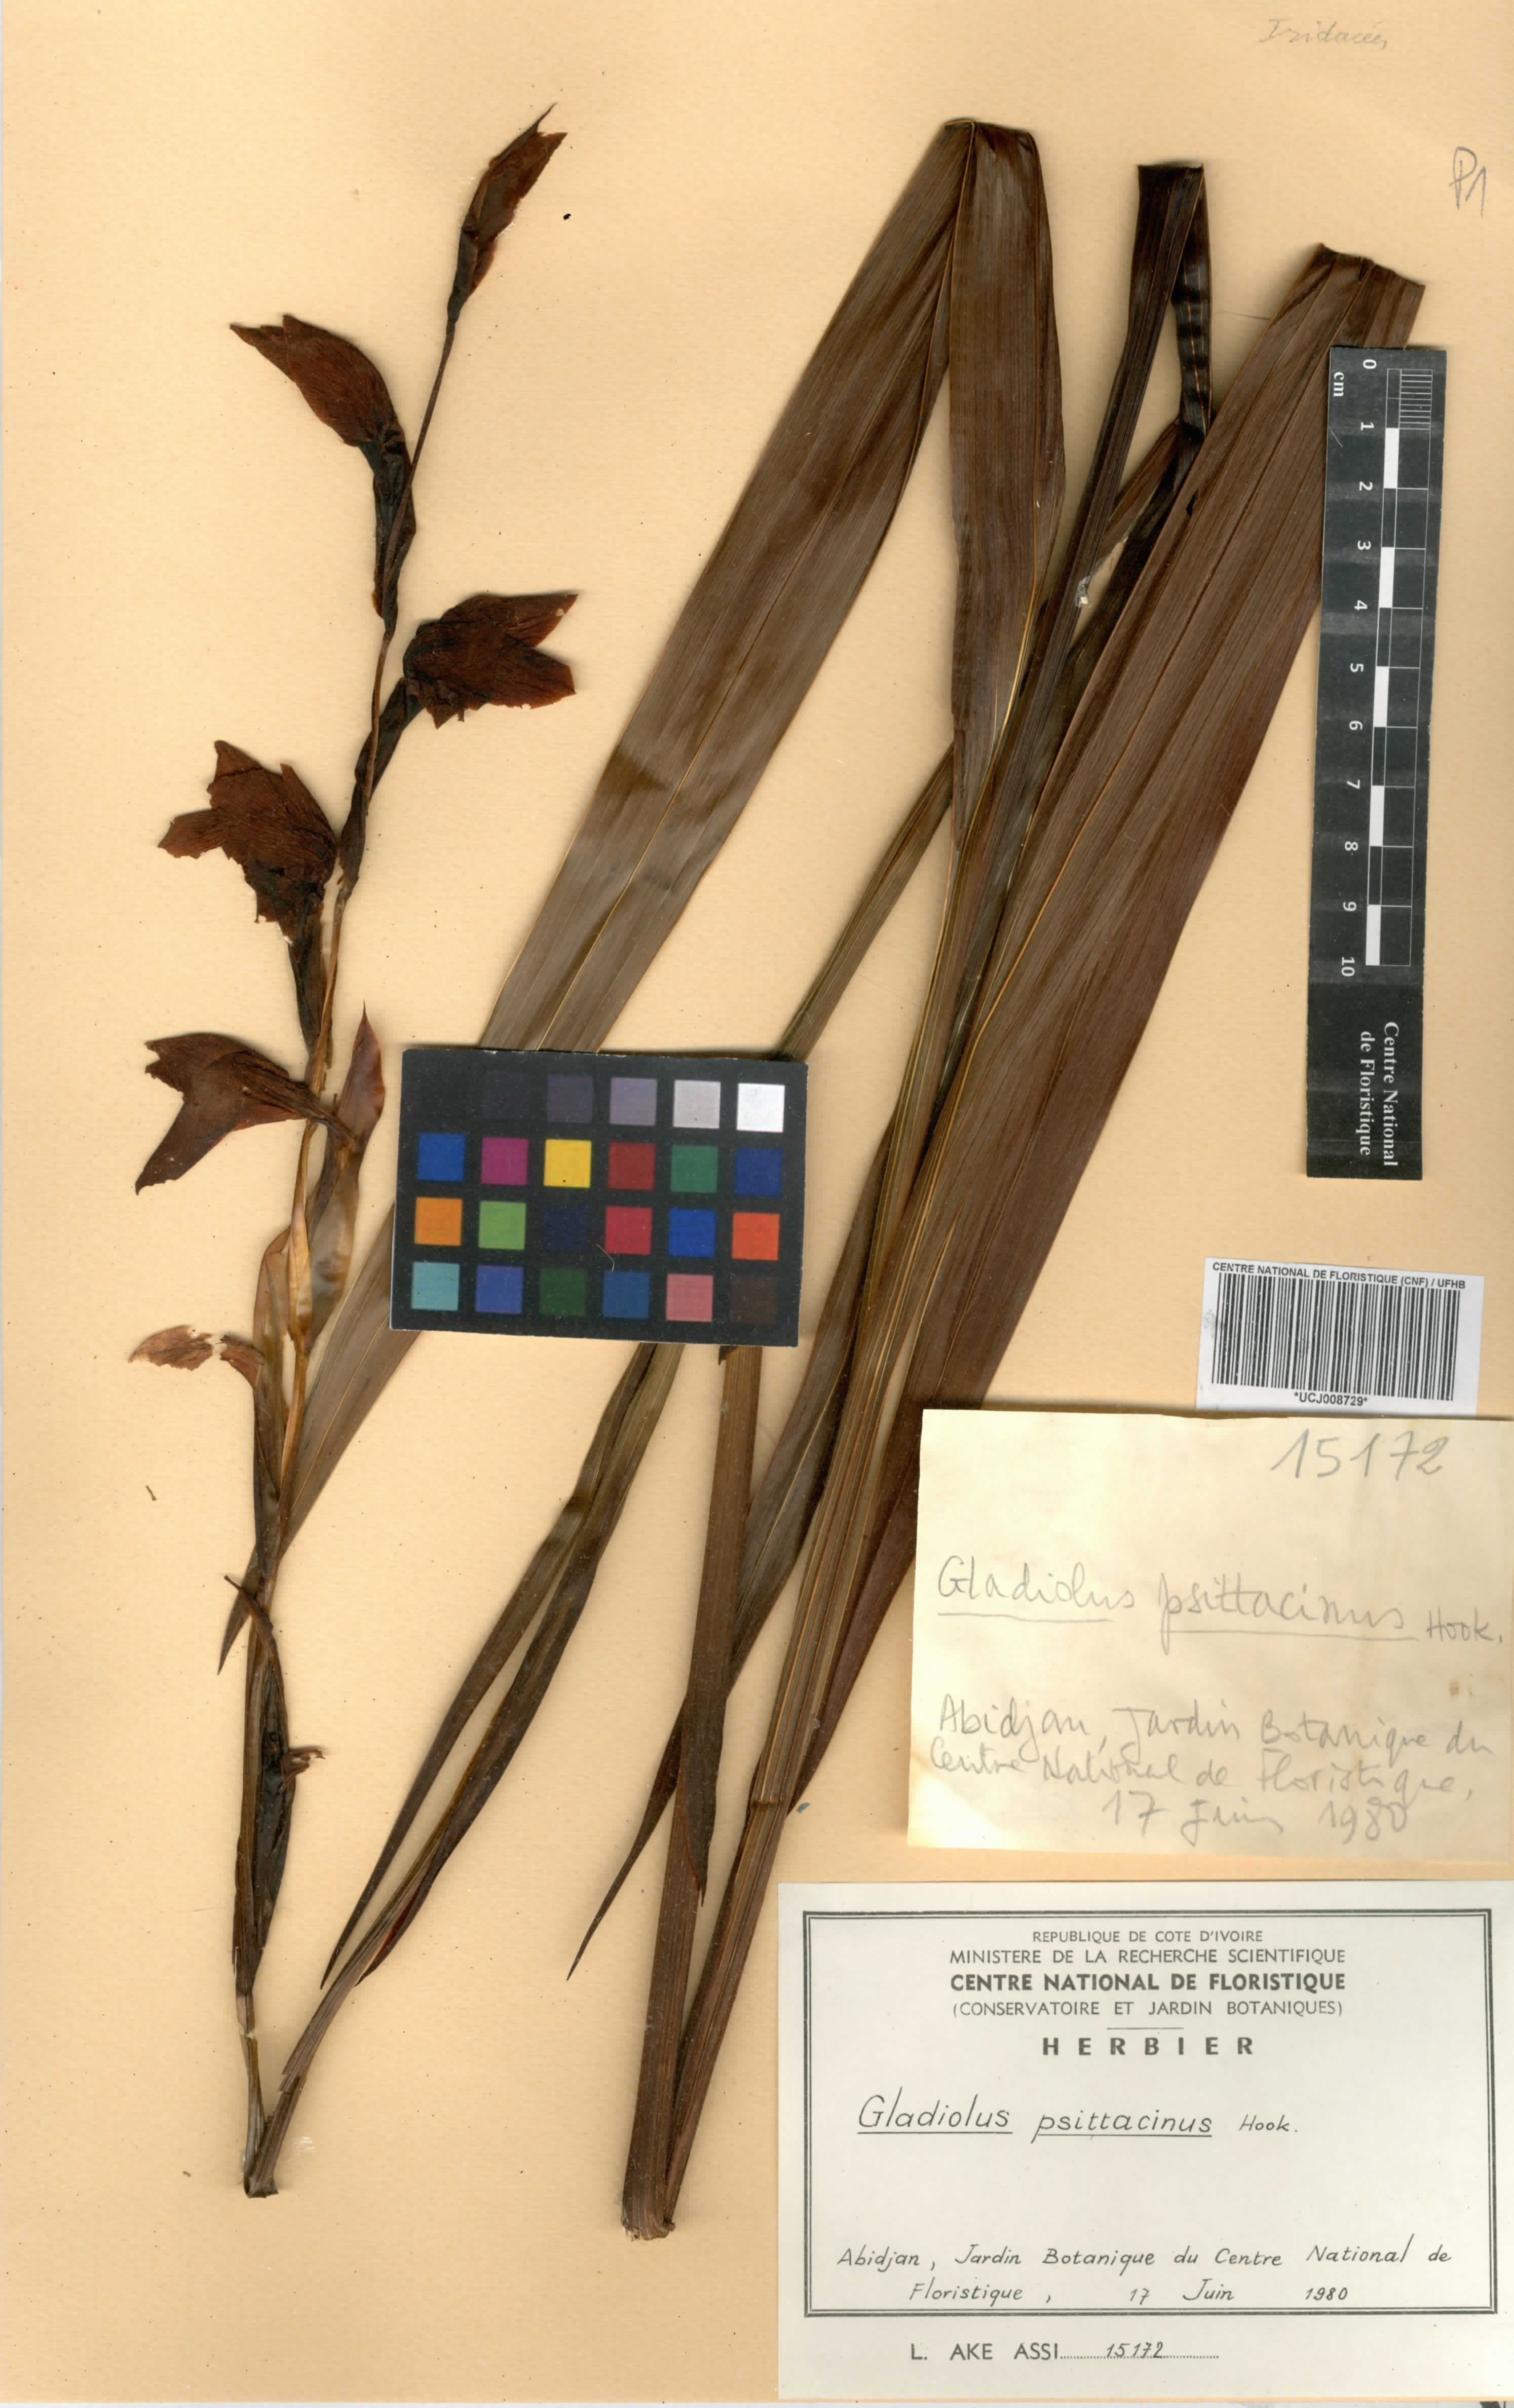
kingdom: Plantae
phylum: Tracheophyta
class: Liliopsida
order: Asparagales
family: Iridaceae
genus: Gladiolus
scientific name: Gladiolus dalenii
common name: Cornflag
